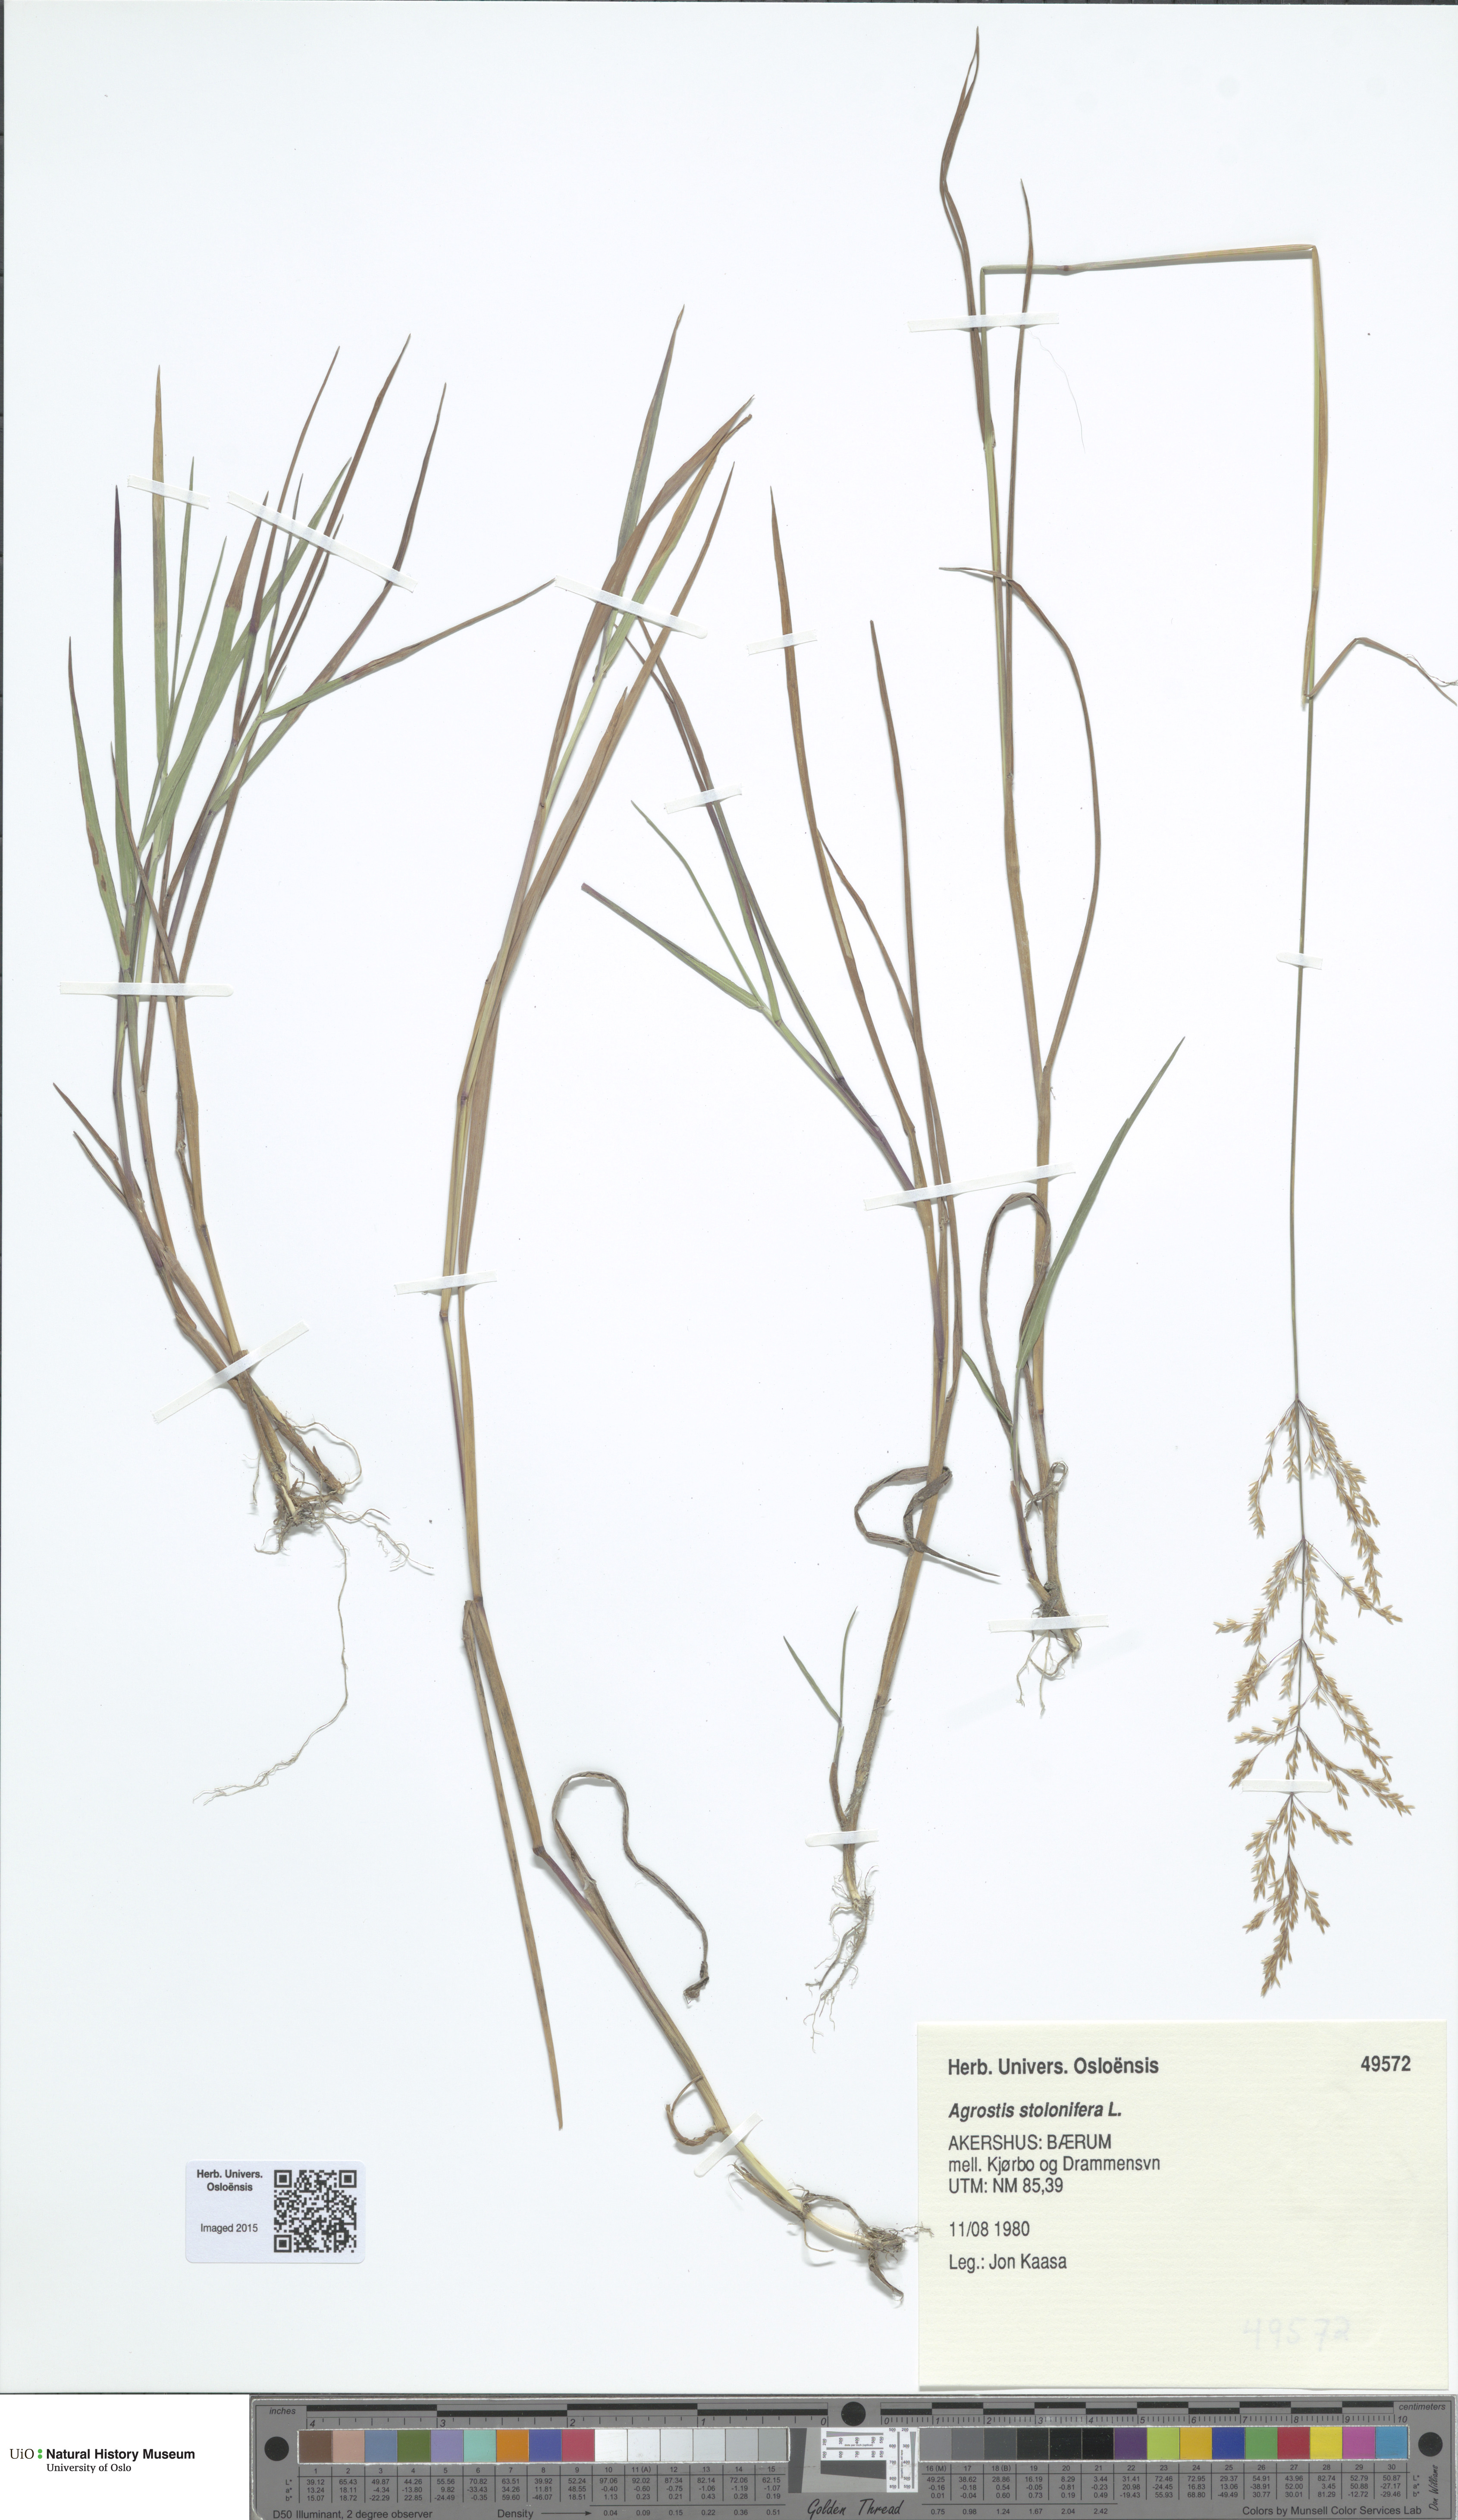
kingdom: Plantae
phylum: Tracheophyta
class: Liliopsida
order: Poales
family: Poaceae
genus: Agrostis
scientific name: Agrostis stolonifera
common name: Creeping bentgrass
